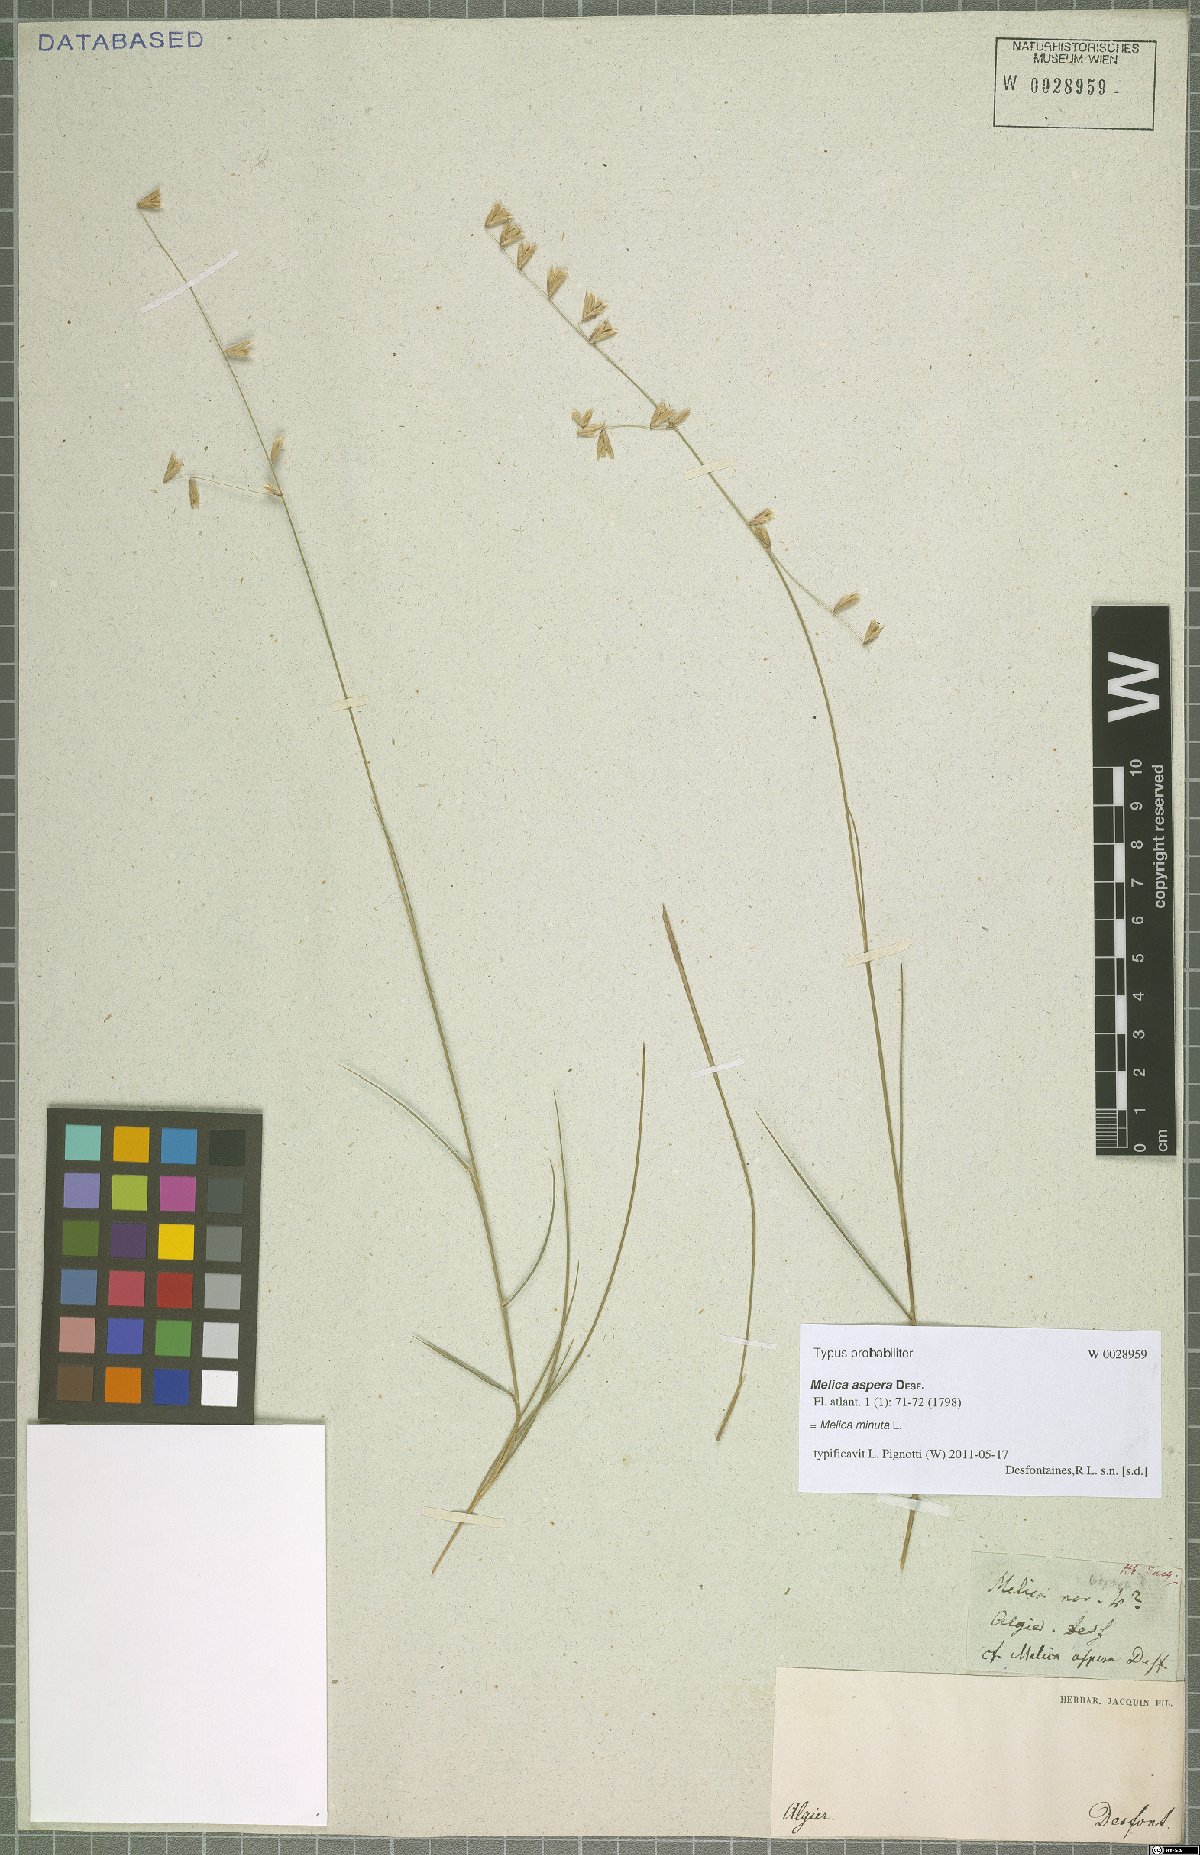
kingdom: Plantae
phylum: Tracheophyta
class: Liliopsida
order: Poales
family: Poaceae
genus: Melica
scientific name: Melica minuta
